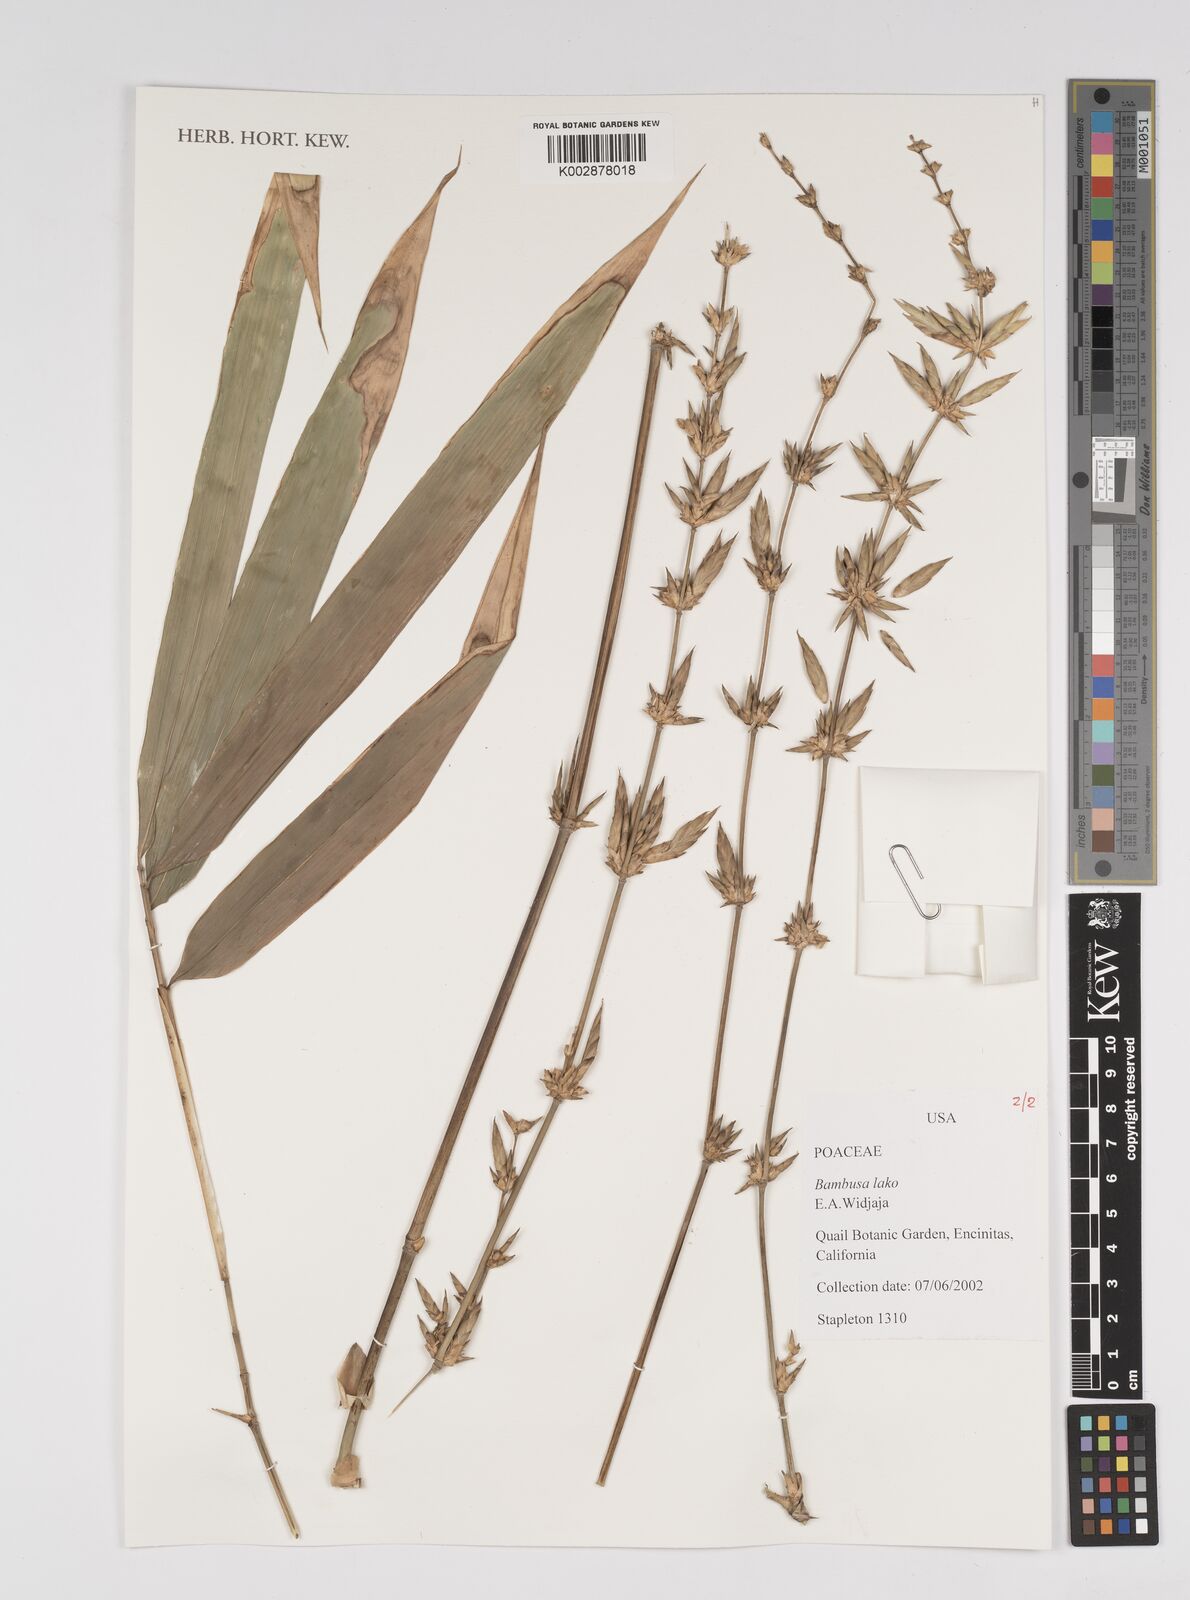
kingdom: Plantae
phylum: Tracheophyta
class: Liliopsida
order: Poales
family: Poaceae
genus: Bambusa
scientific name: Bambusa lako
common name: Timor black bamboo
